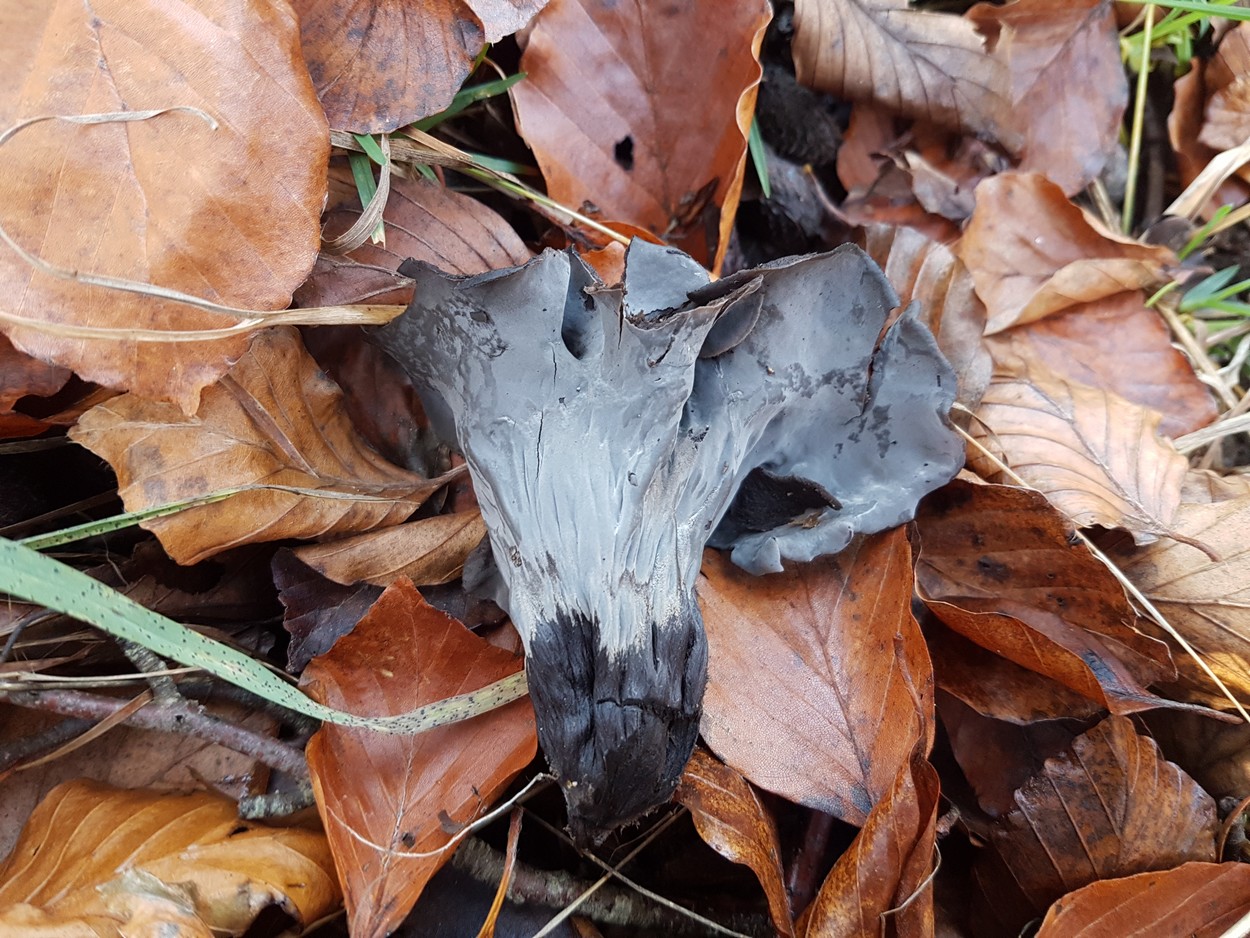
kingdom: Fungi
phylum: Basidiomycota
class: Agaricomycetes
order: Cantharellales
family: Hydnaceae
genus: Craterellus
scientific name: Craterellus cornucopioides
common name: trompetsvamp
